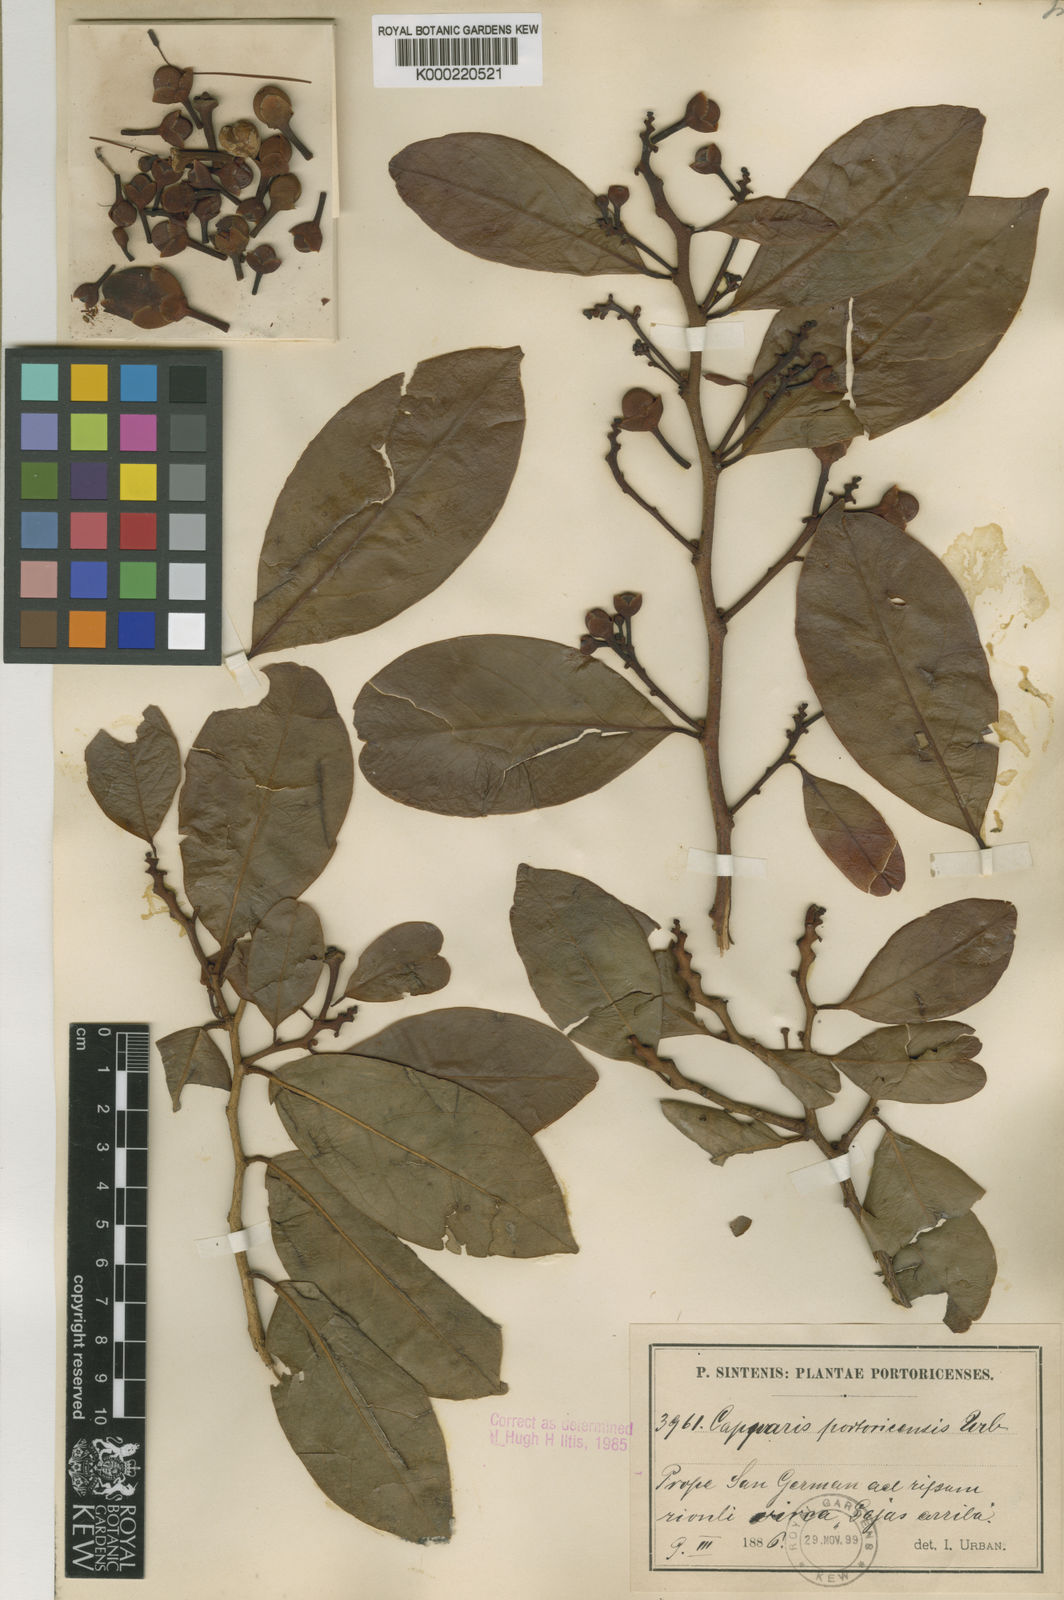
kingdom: Plantae
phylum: Tracheophyta
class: Magnoliopsida
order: Brassicales
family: Capparaceae
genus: Cynophalla
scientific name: Cynophalla amplissima
